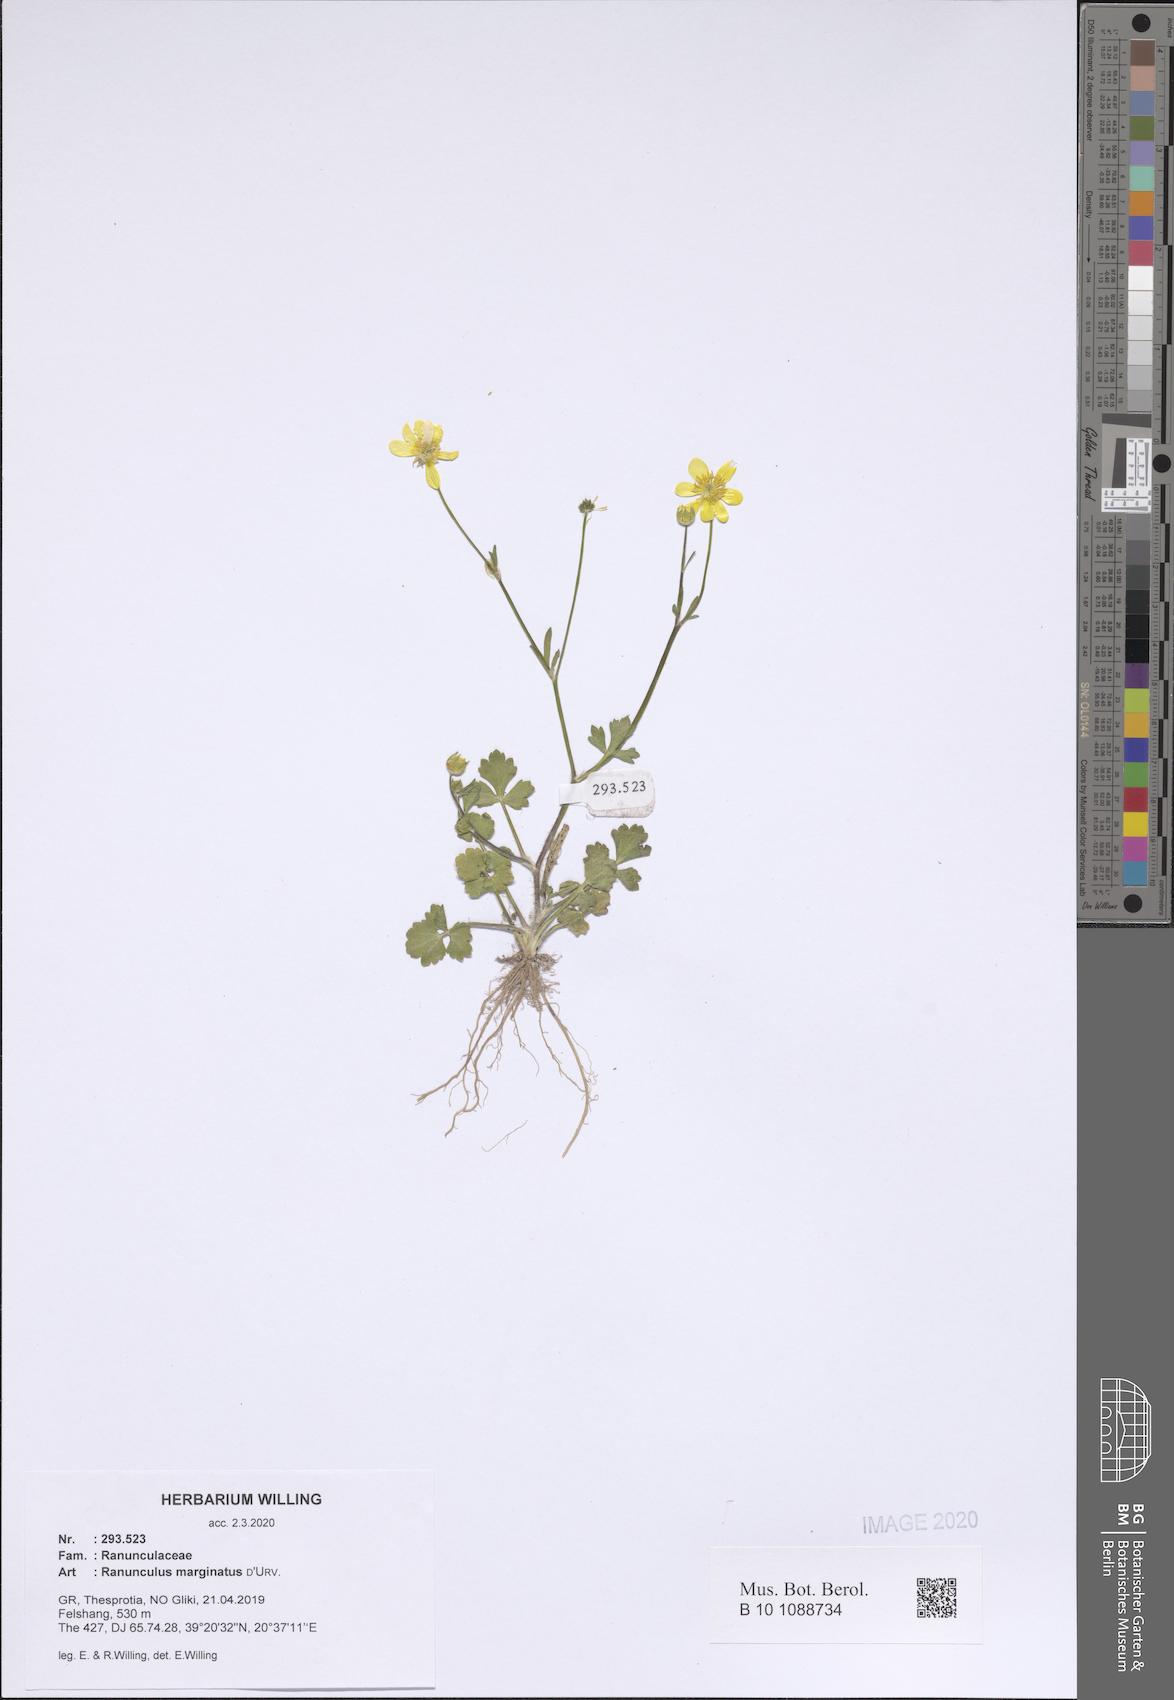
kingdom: Plantae
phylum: Tracheophyta
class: Magnoliopsida
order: Ranunculales
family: Ranunculaceae
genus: Ranunculus
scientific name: Ranunculus marginatus
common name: St. martin's buttercup
